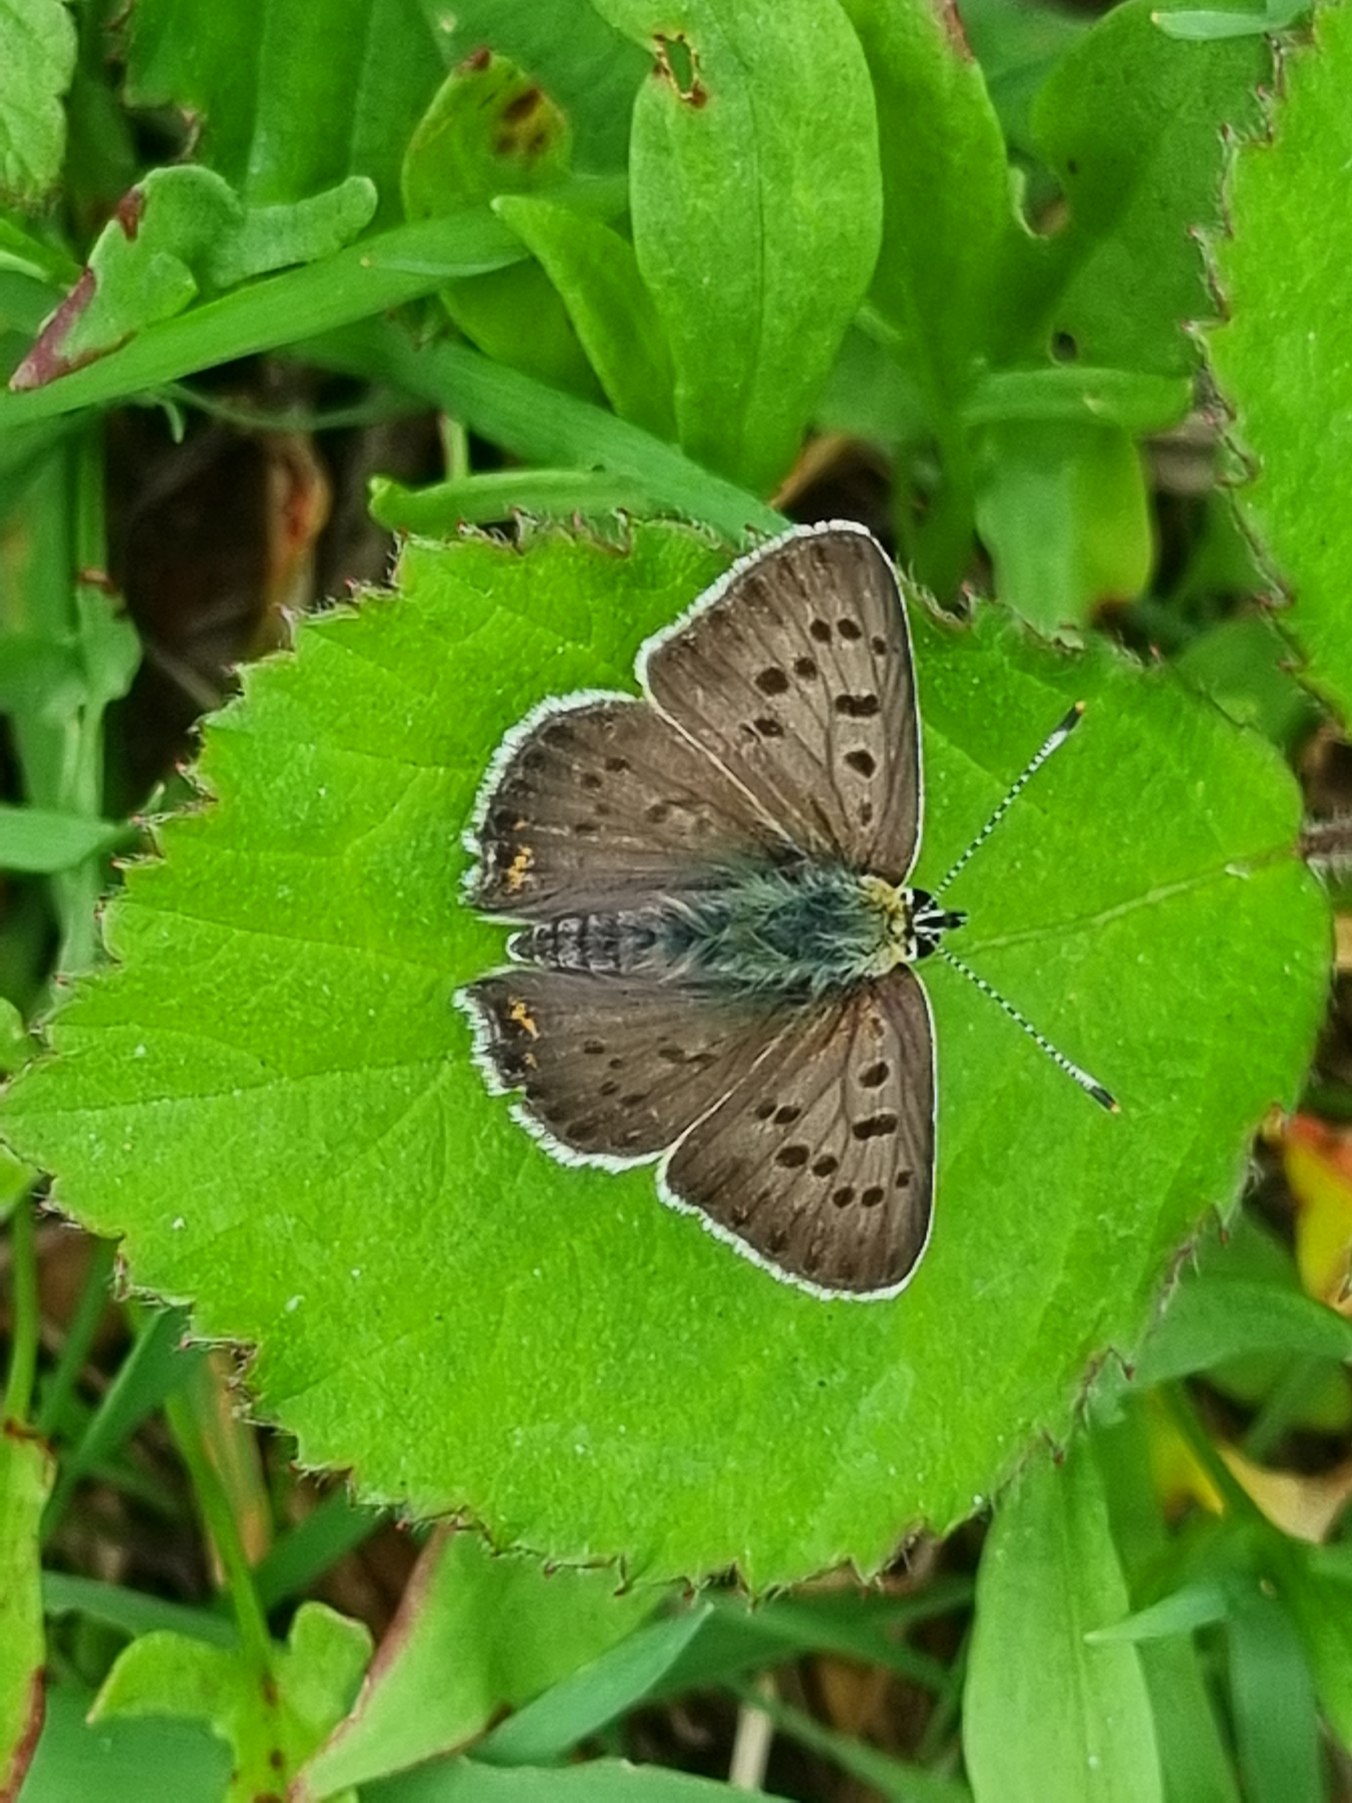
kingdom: Animalia
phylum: Arthropoda
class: Insecta
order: Lepidoptera
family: Lycaenidae
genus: Loweia
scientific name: Loweia tityrus
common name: Sort ildfugl
